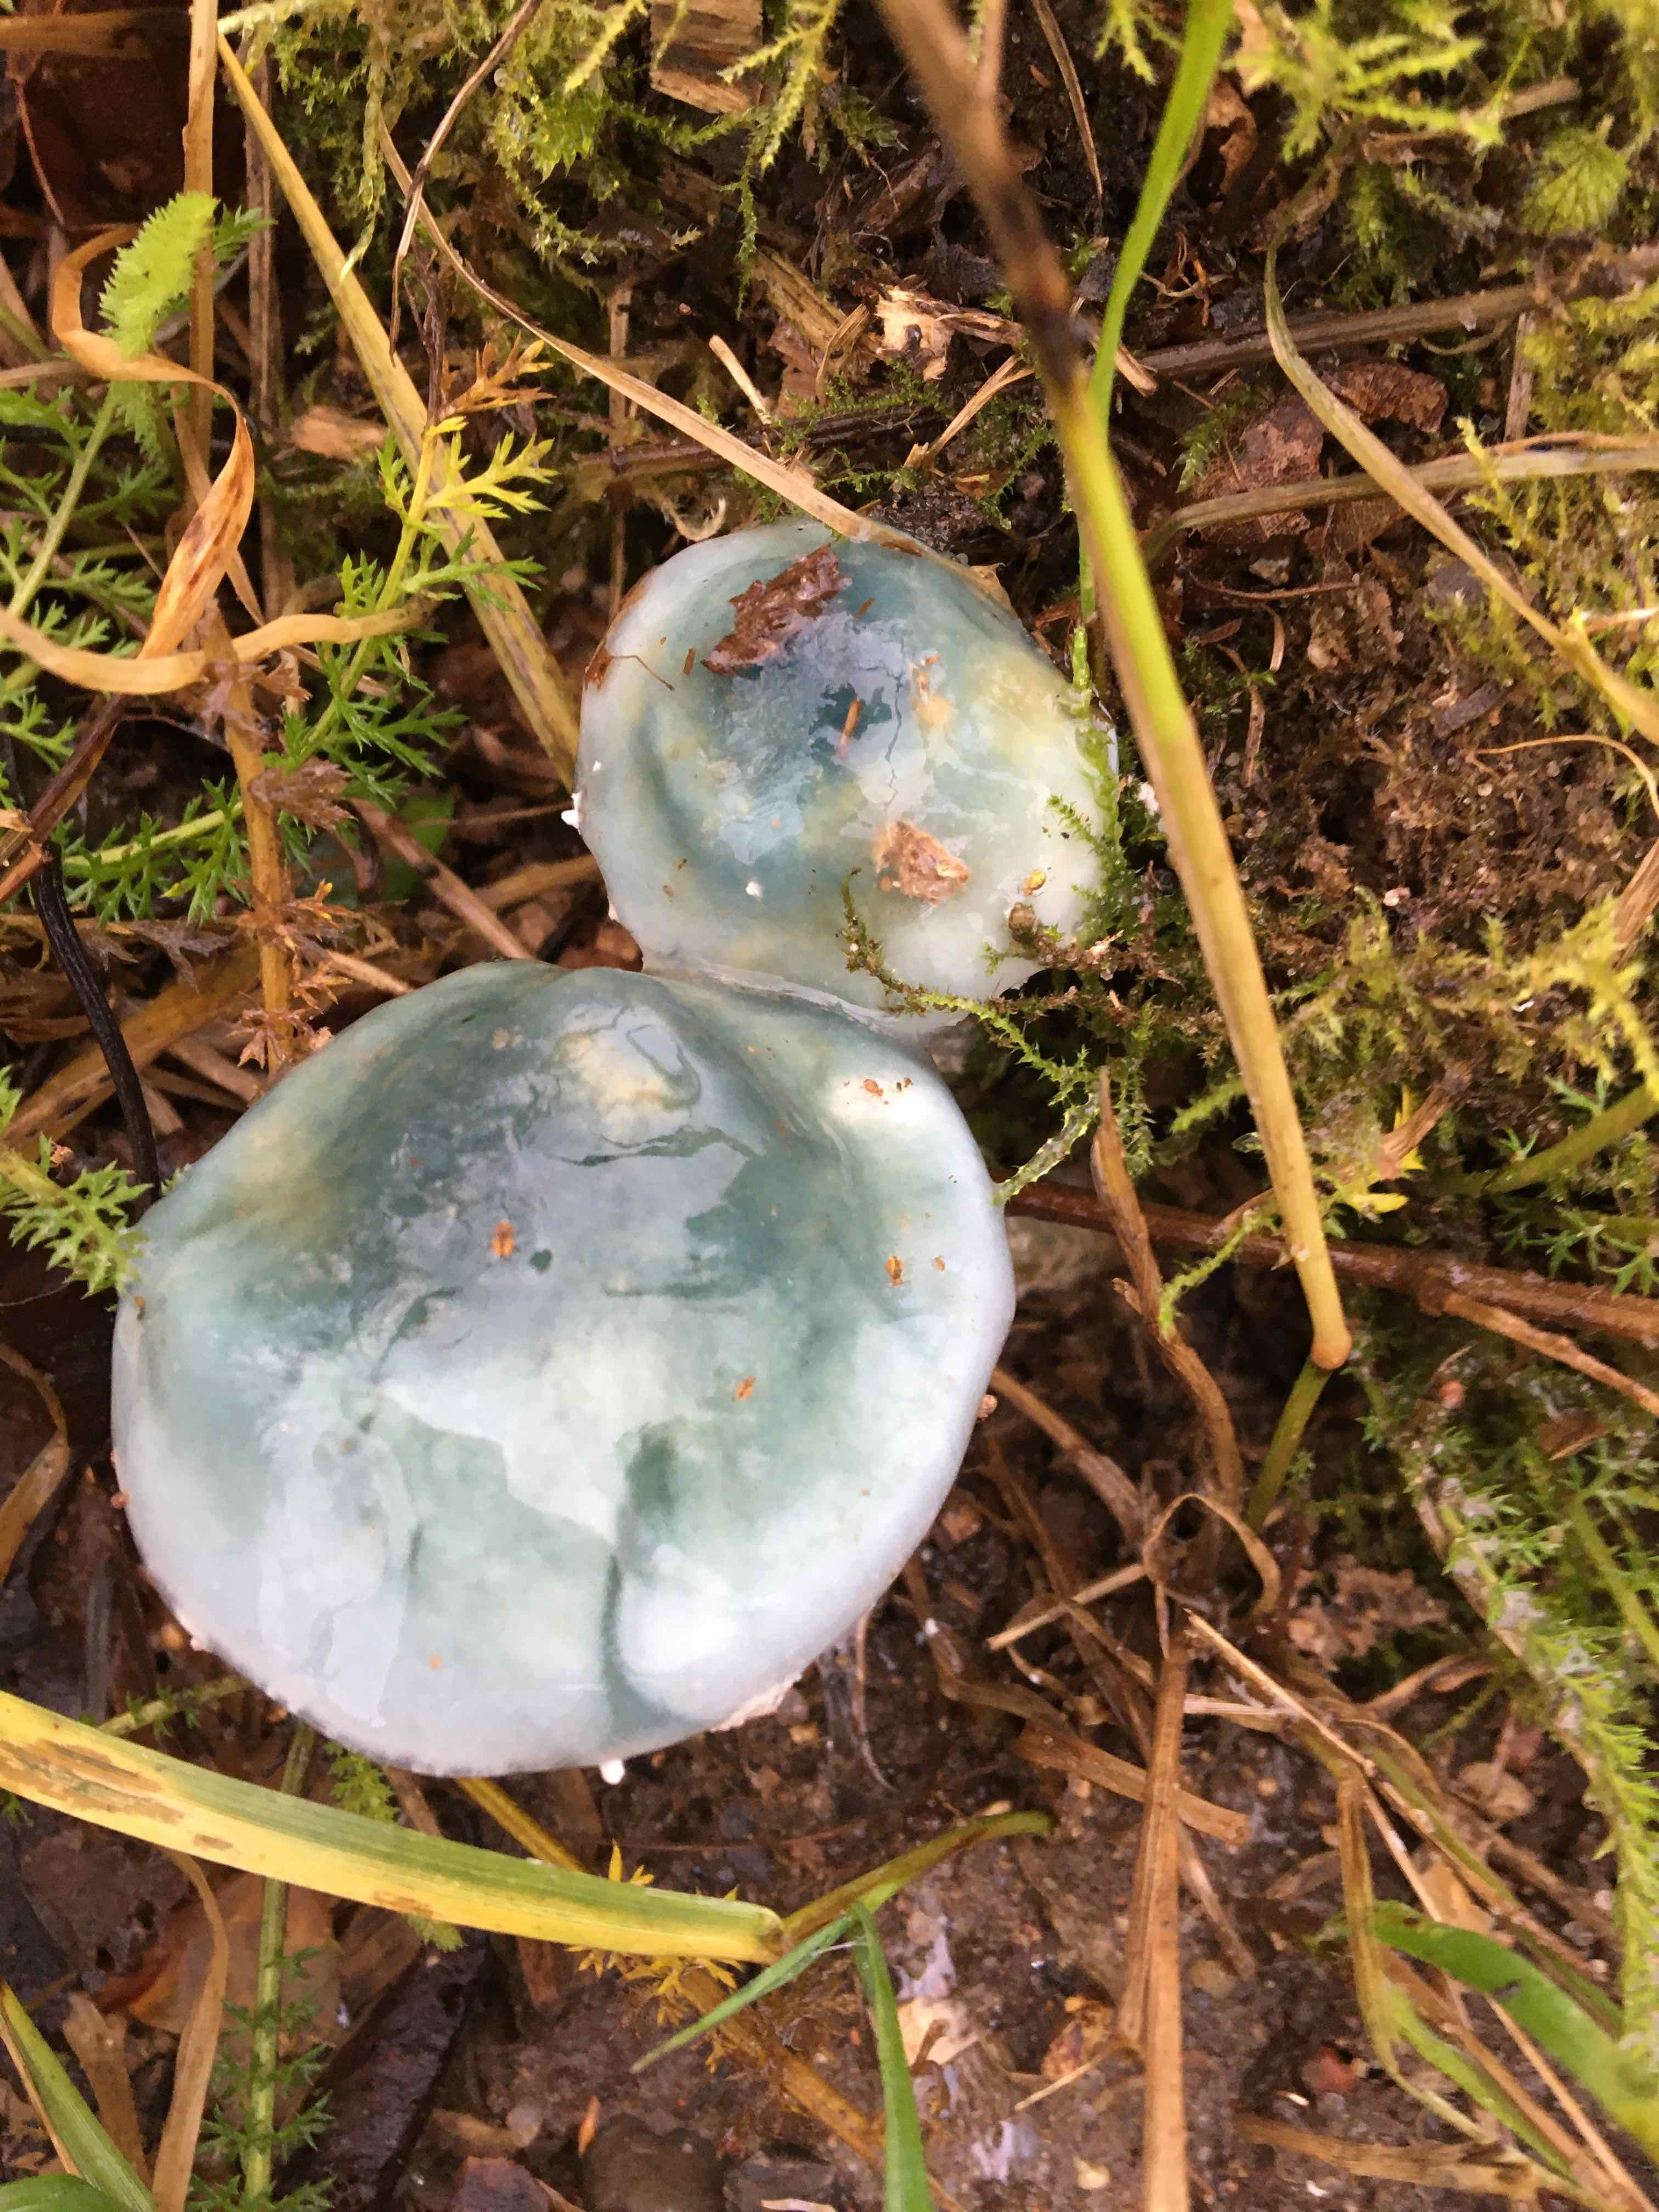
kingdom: Fungi
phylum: Basidiomycota
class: Agaricomycetes
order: Agaricales
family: Strophariaceae
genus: Stropharia
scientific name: Stropharia
